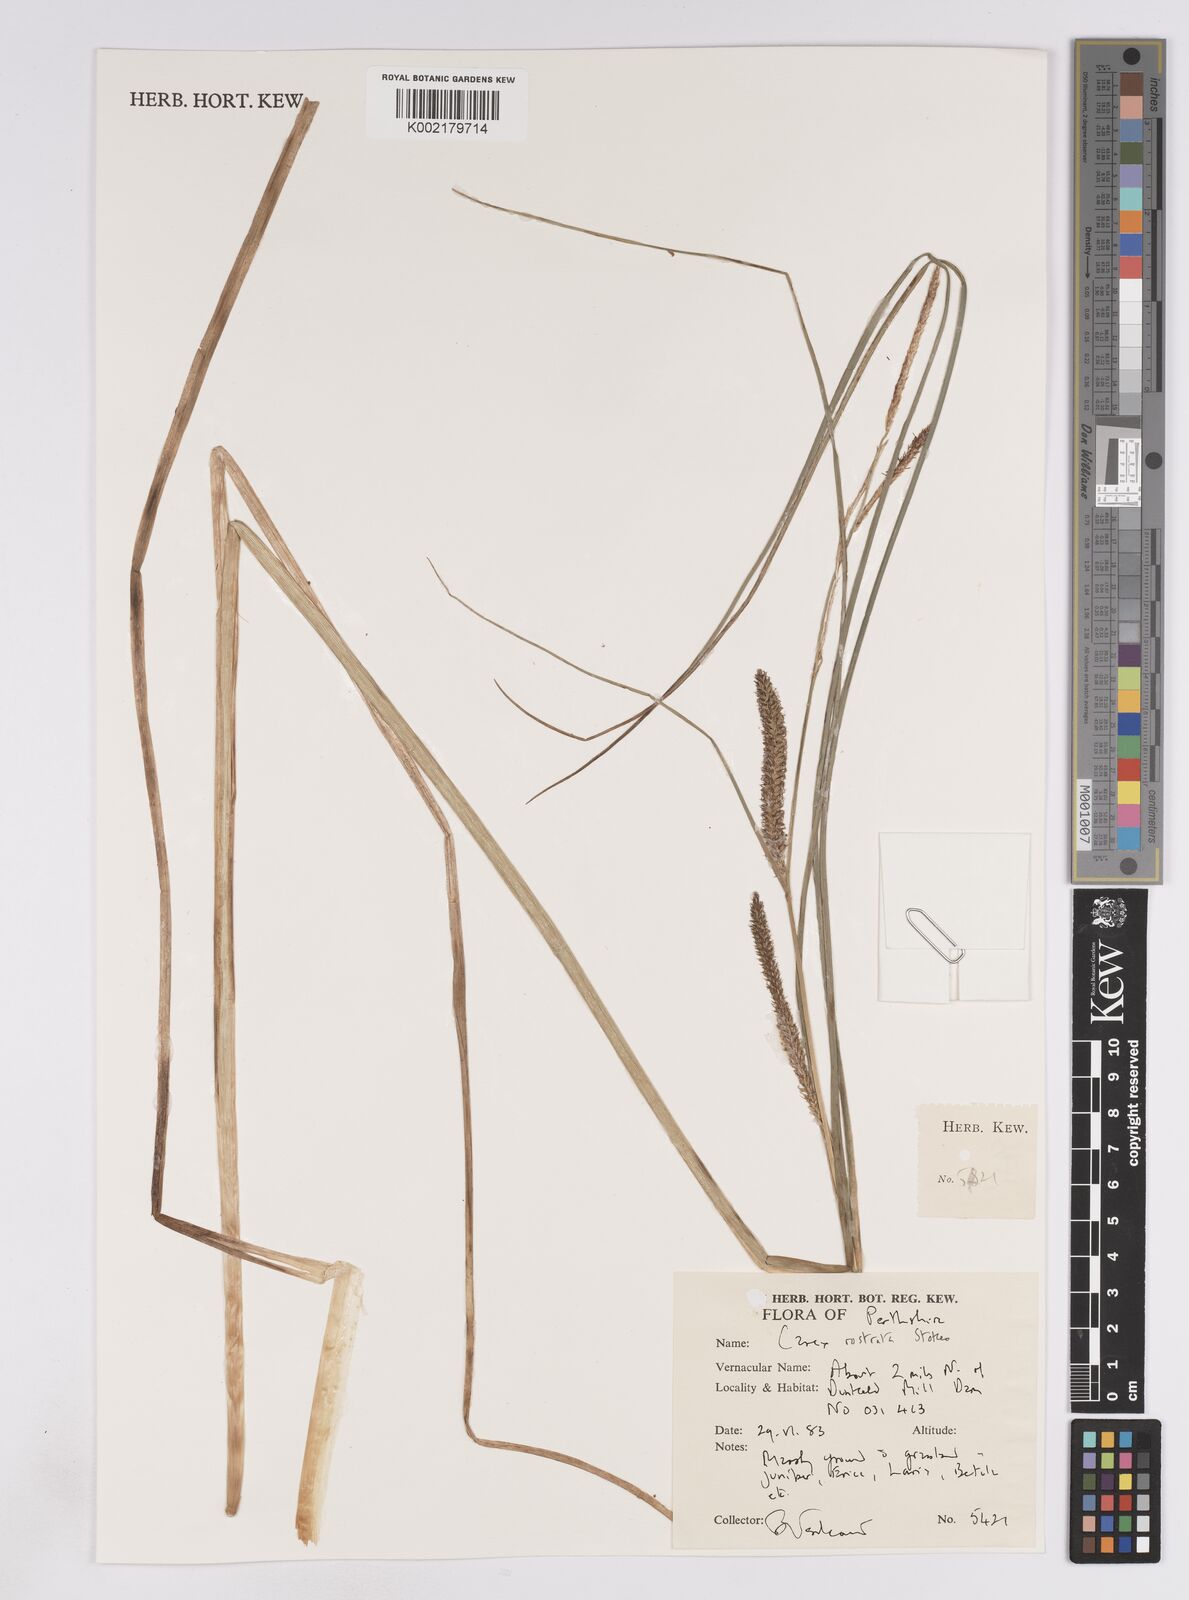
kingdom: Plantae
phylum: Tracheophyta
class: Liliopsida
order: Poales
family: Cyperaceae
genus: Carex
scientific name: Carex rostrata
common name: Bottle sedge
